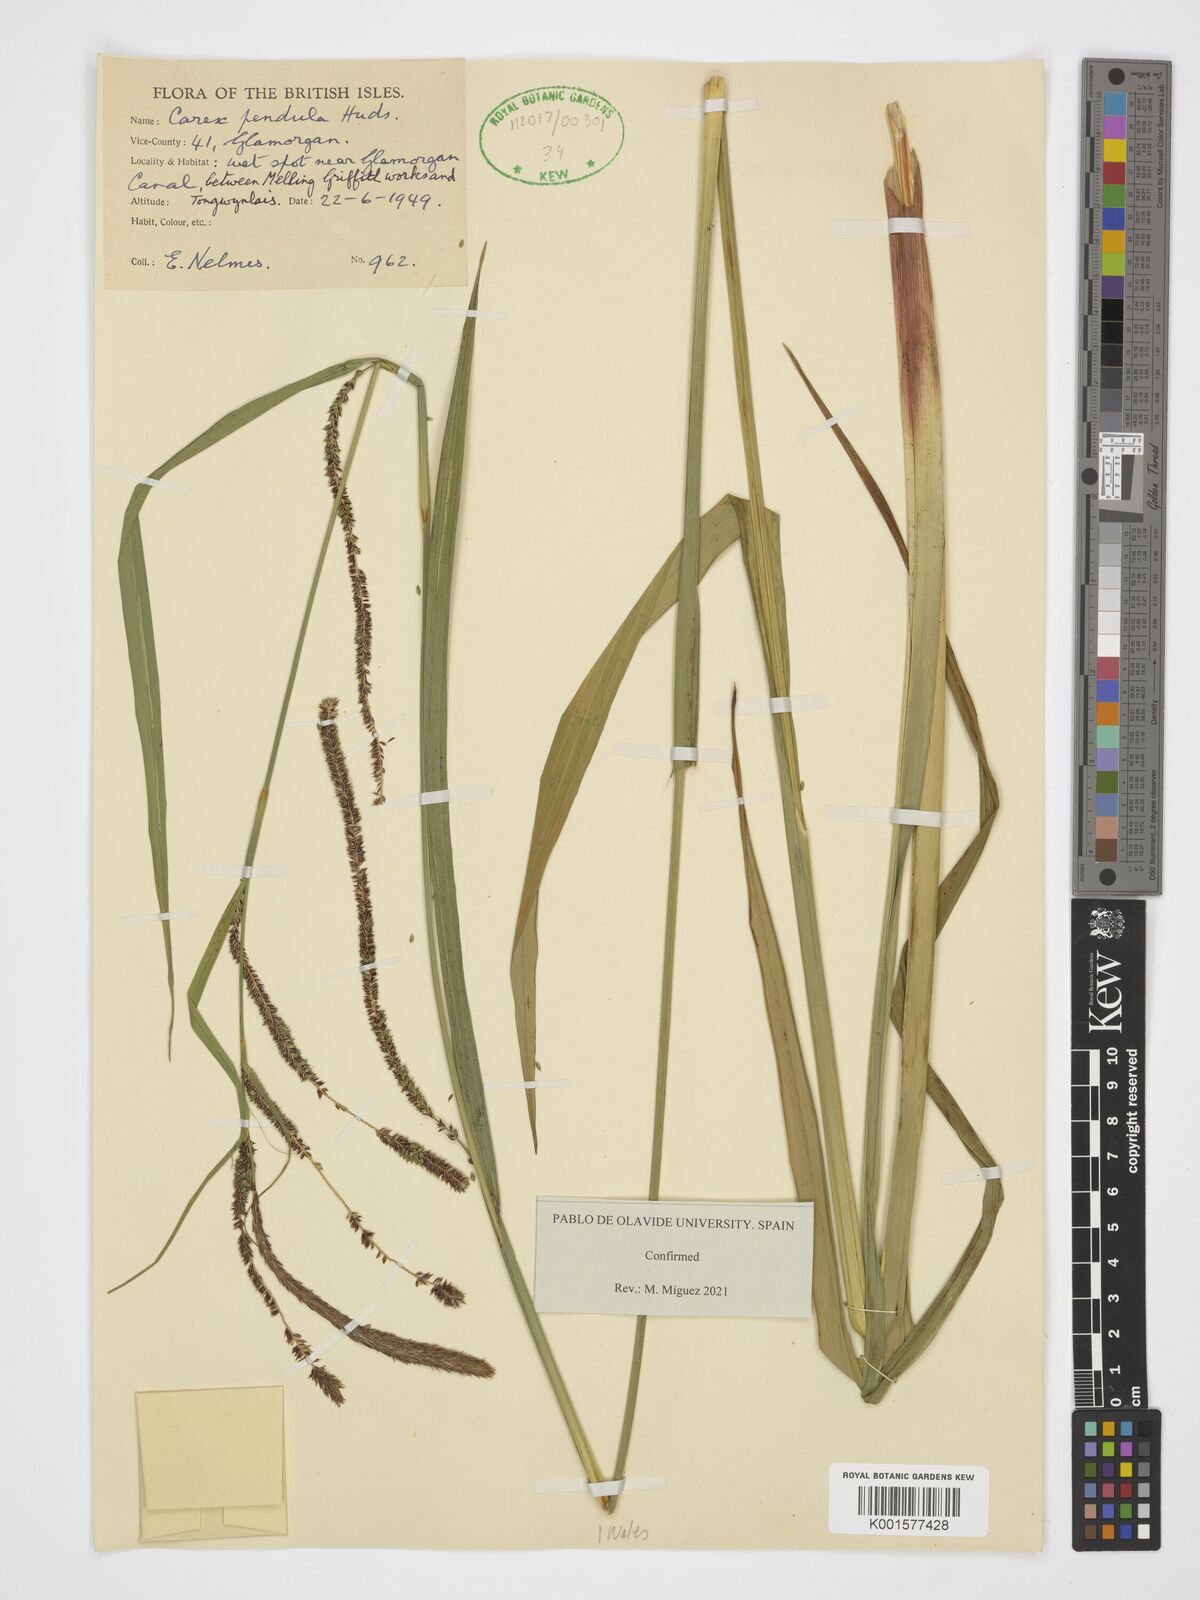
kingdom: Plantae
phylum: Tracheophyta
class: Liliopsida
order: Poales
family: Cyperaceae
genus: Carex
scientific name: Carex pendula
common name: Pendulous sedge
